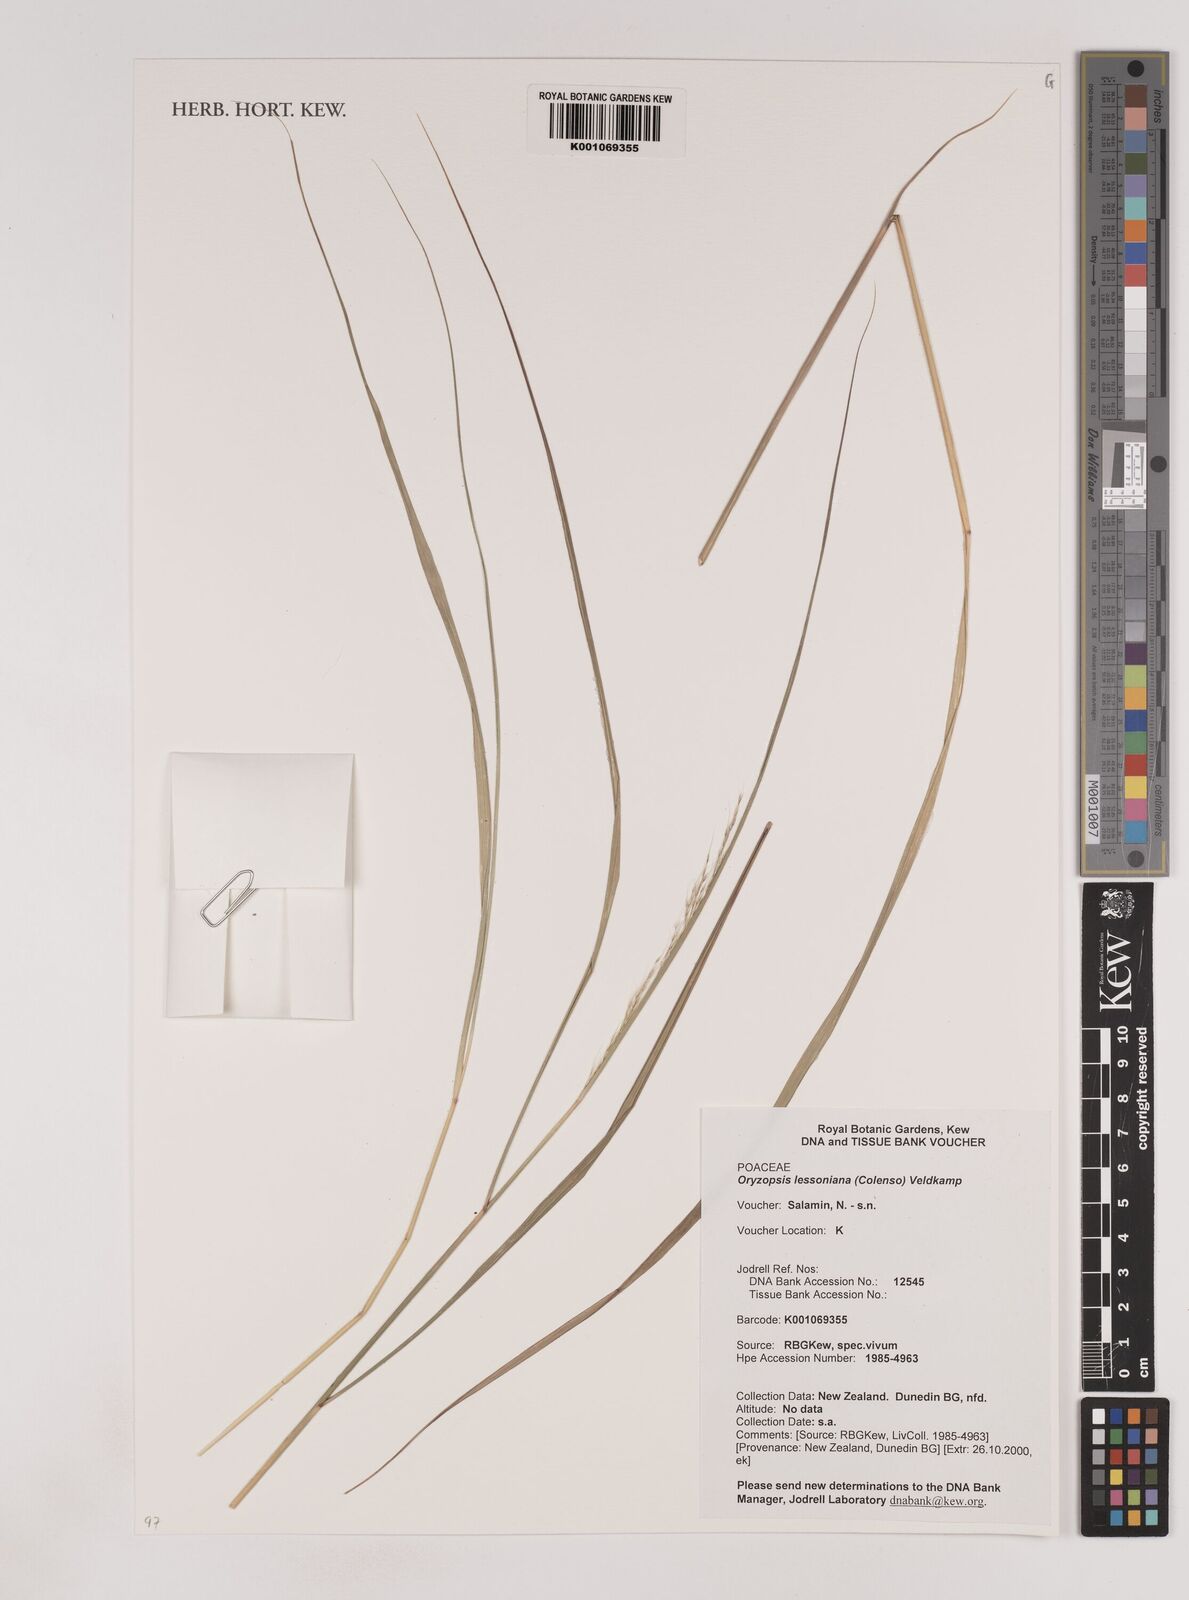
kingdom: Plantae
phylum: Tracheophyta
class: Liliopsida
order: Poales
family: Poaceae
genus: Anemanthele
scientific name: Anemanthele lessoniana
